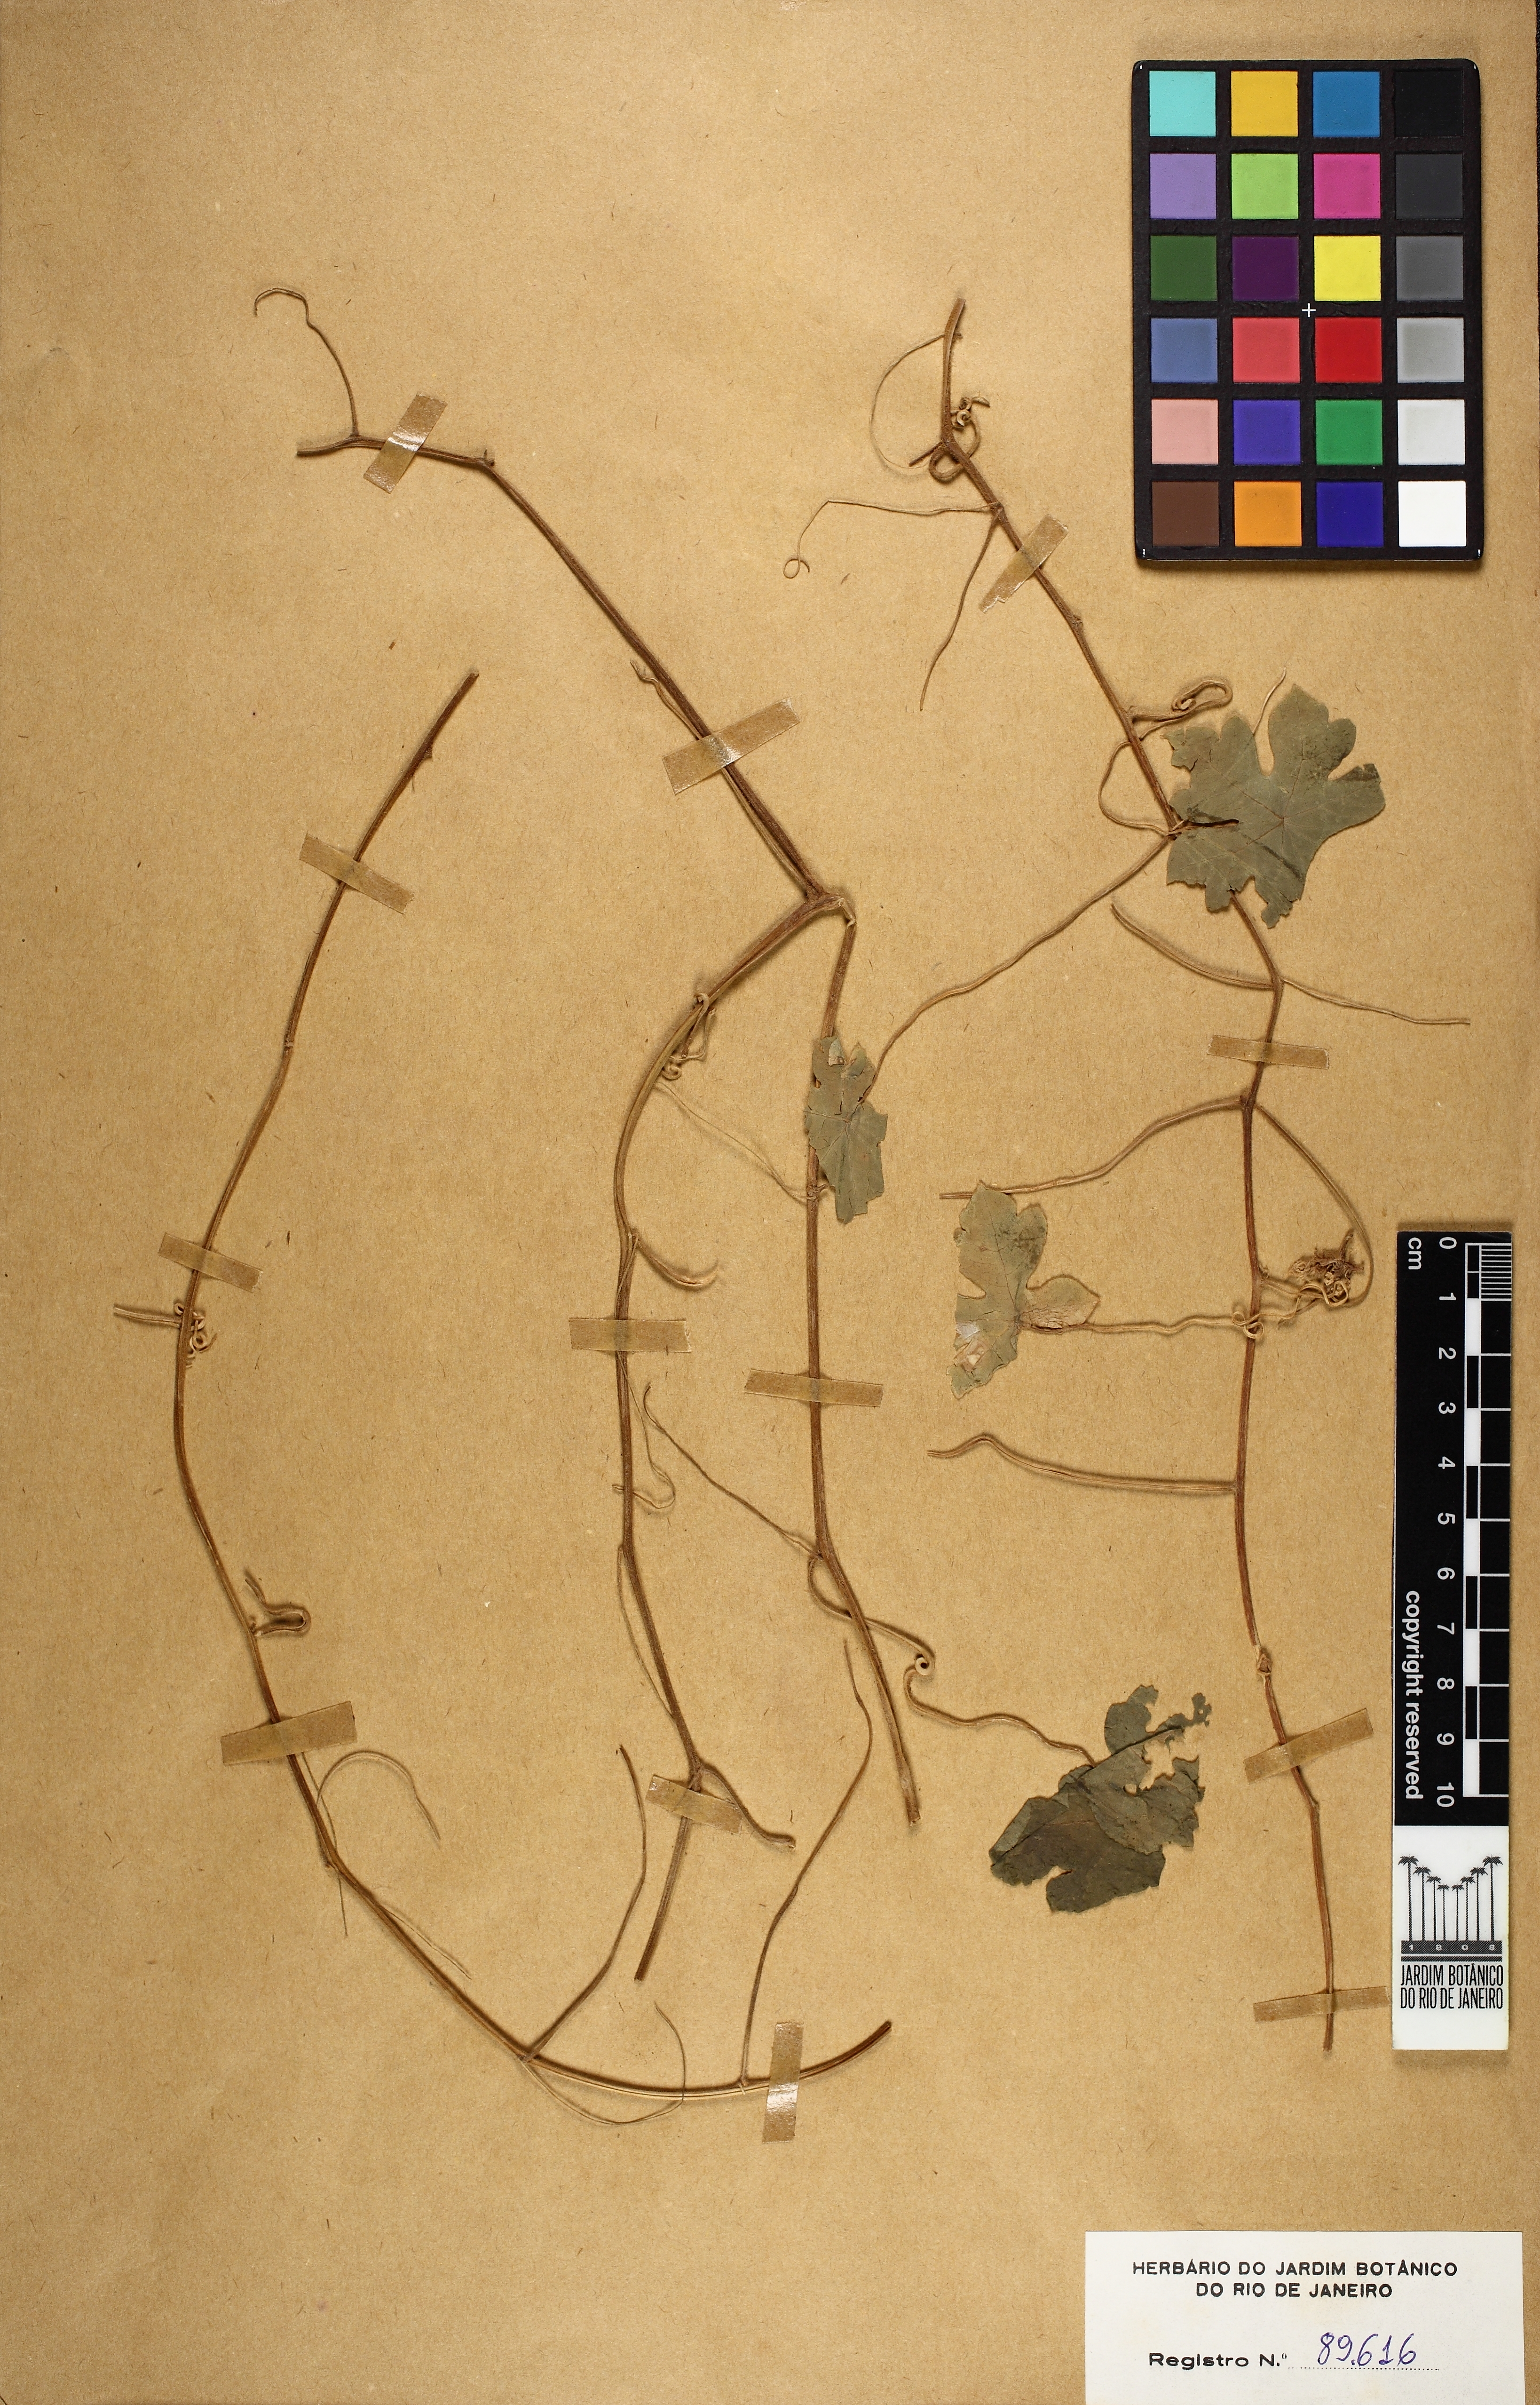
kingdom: Plantae
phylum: Tracheophyta
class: Magnoliopsida
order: Brassicales
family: Tropaeolaceae
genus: Tropaeolum
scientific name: Tropaeolum warmingianum
